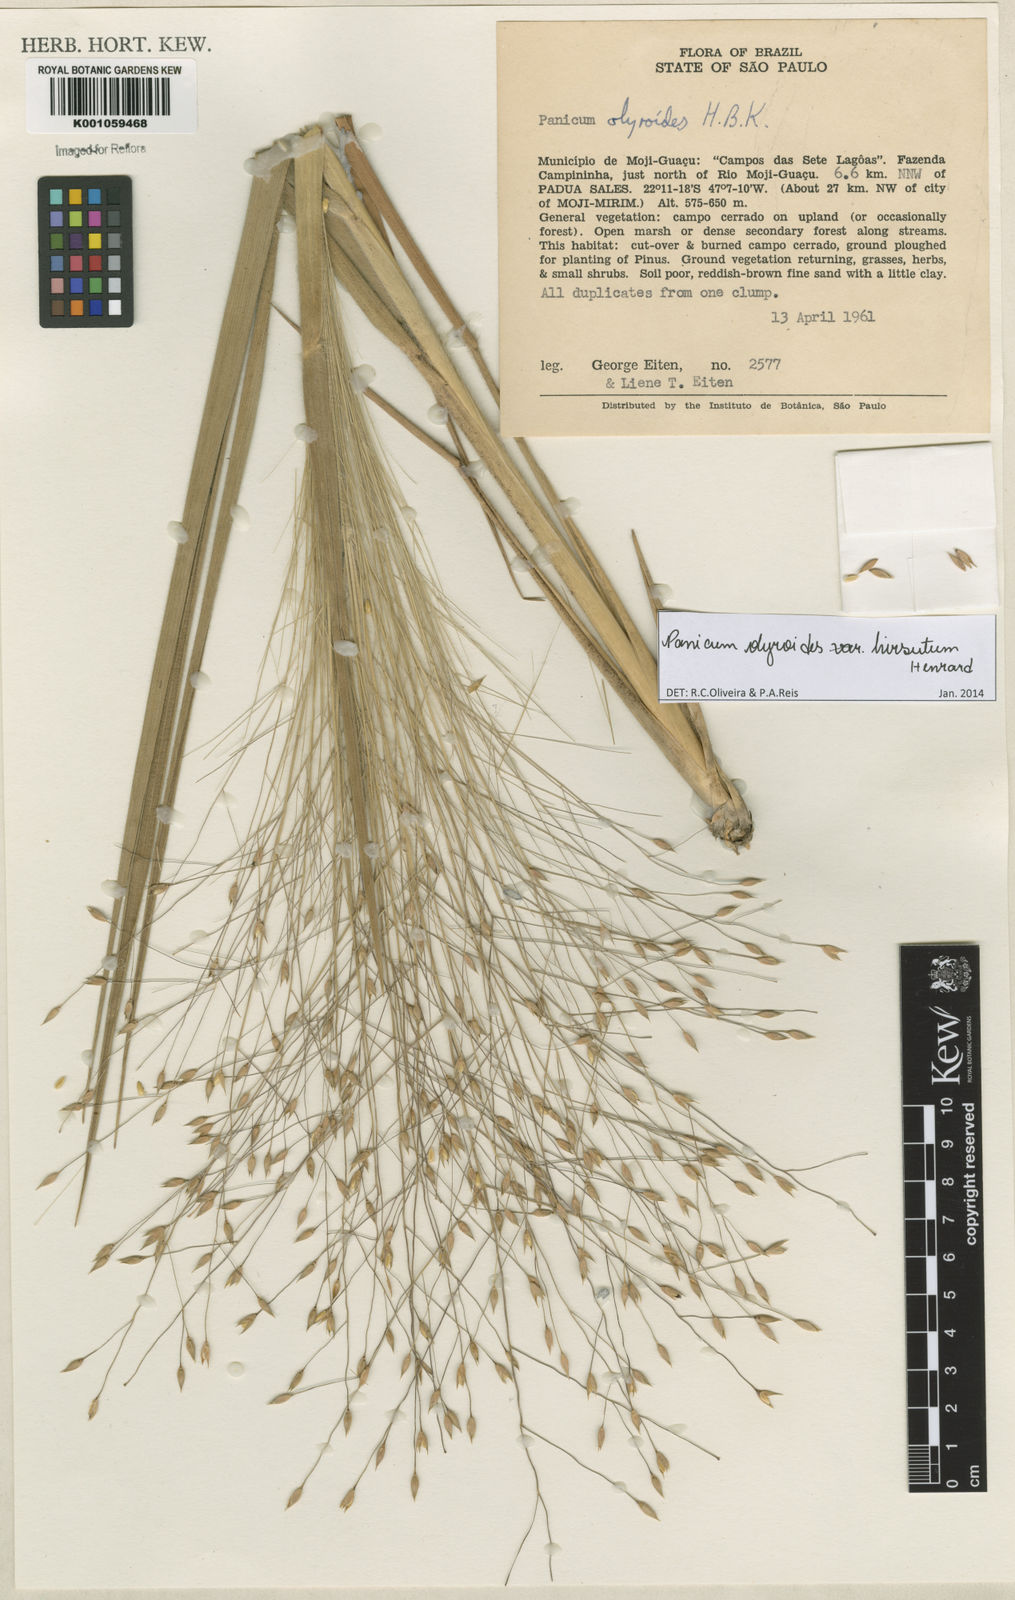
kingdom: Plantae
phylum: Tracheophyta
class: Liliopsida
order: Poales
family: Poaceae
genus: Panicum
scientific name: Panicum olyroides
